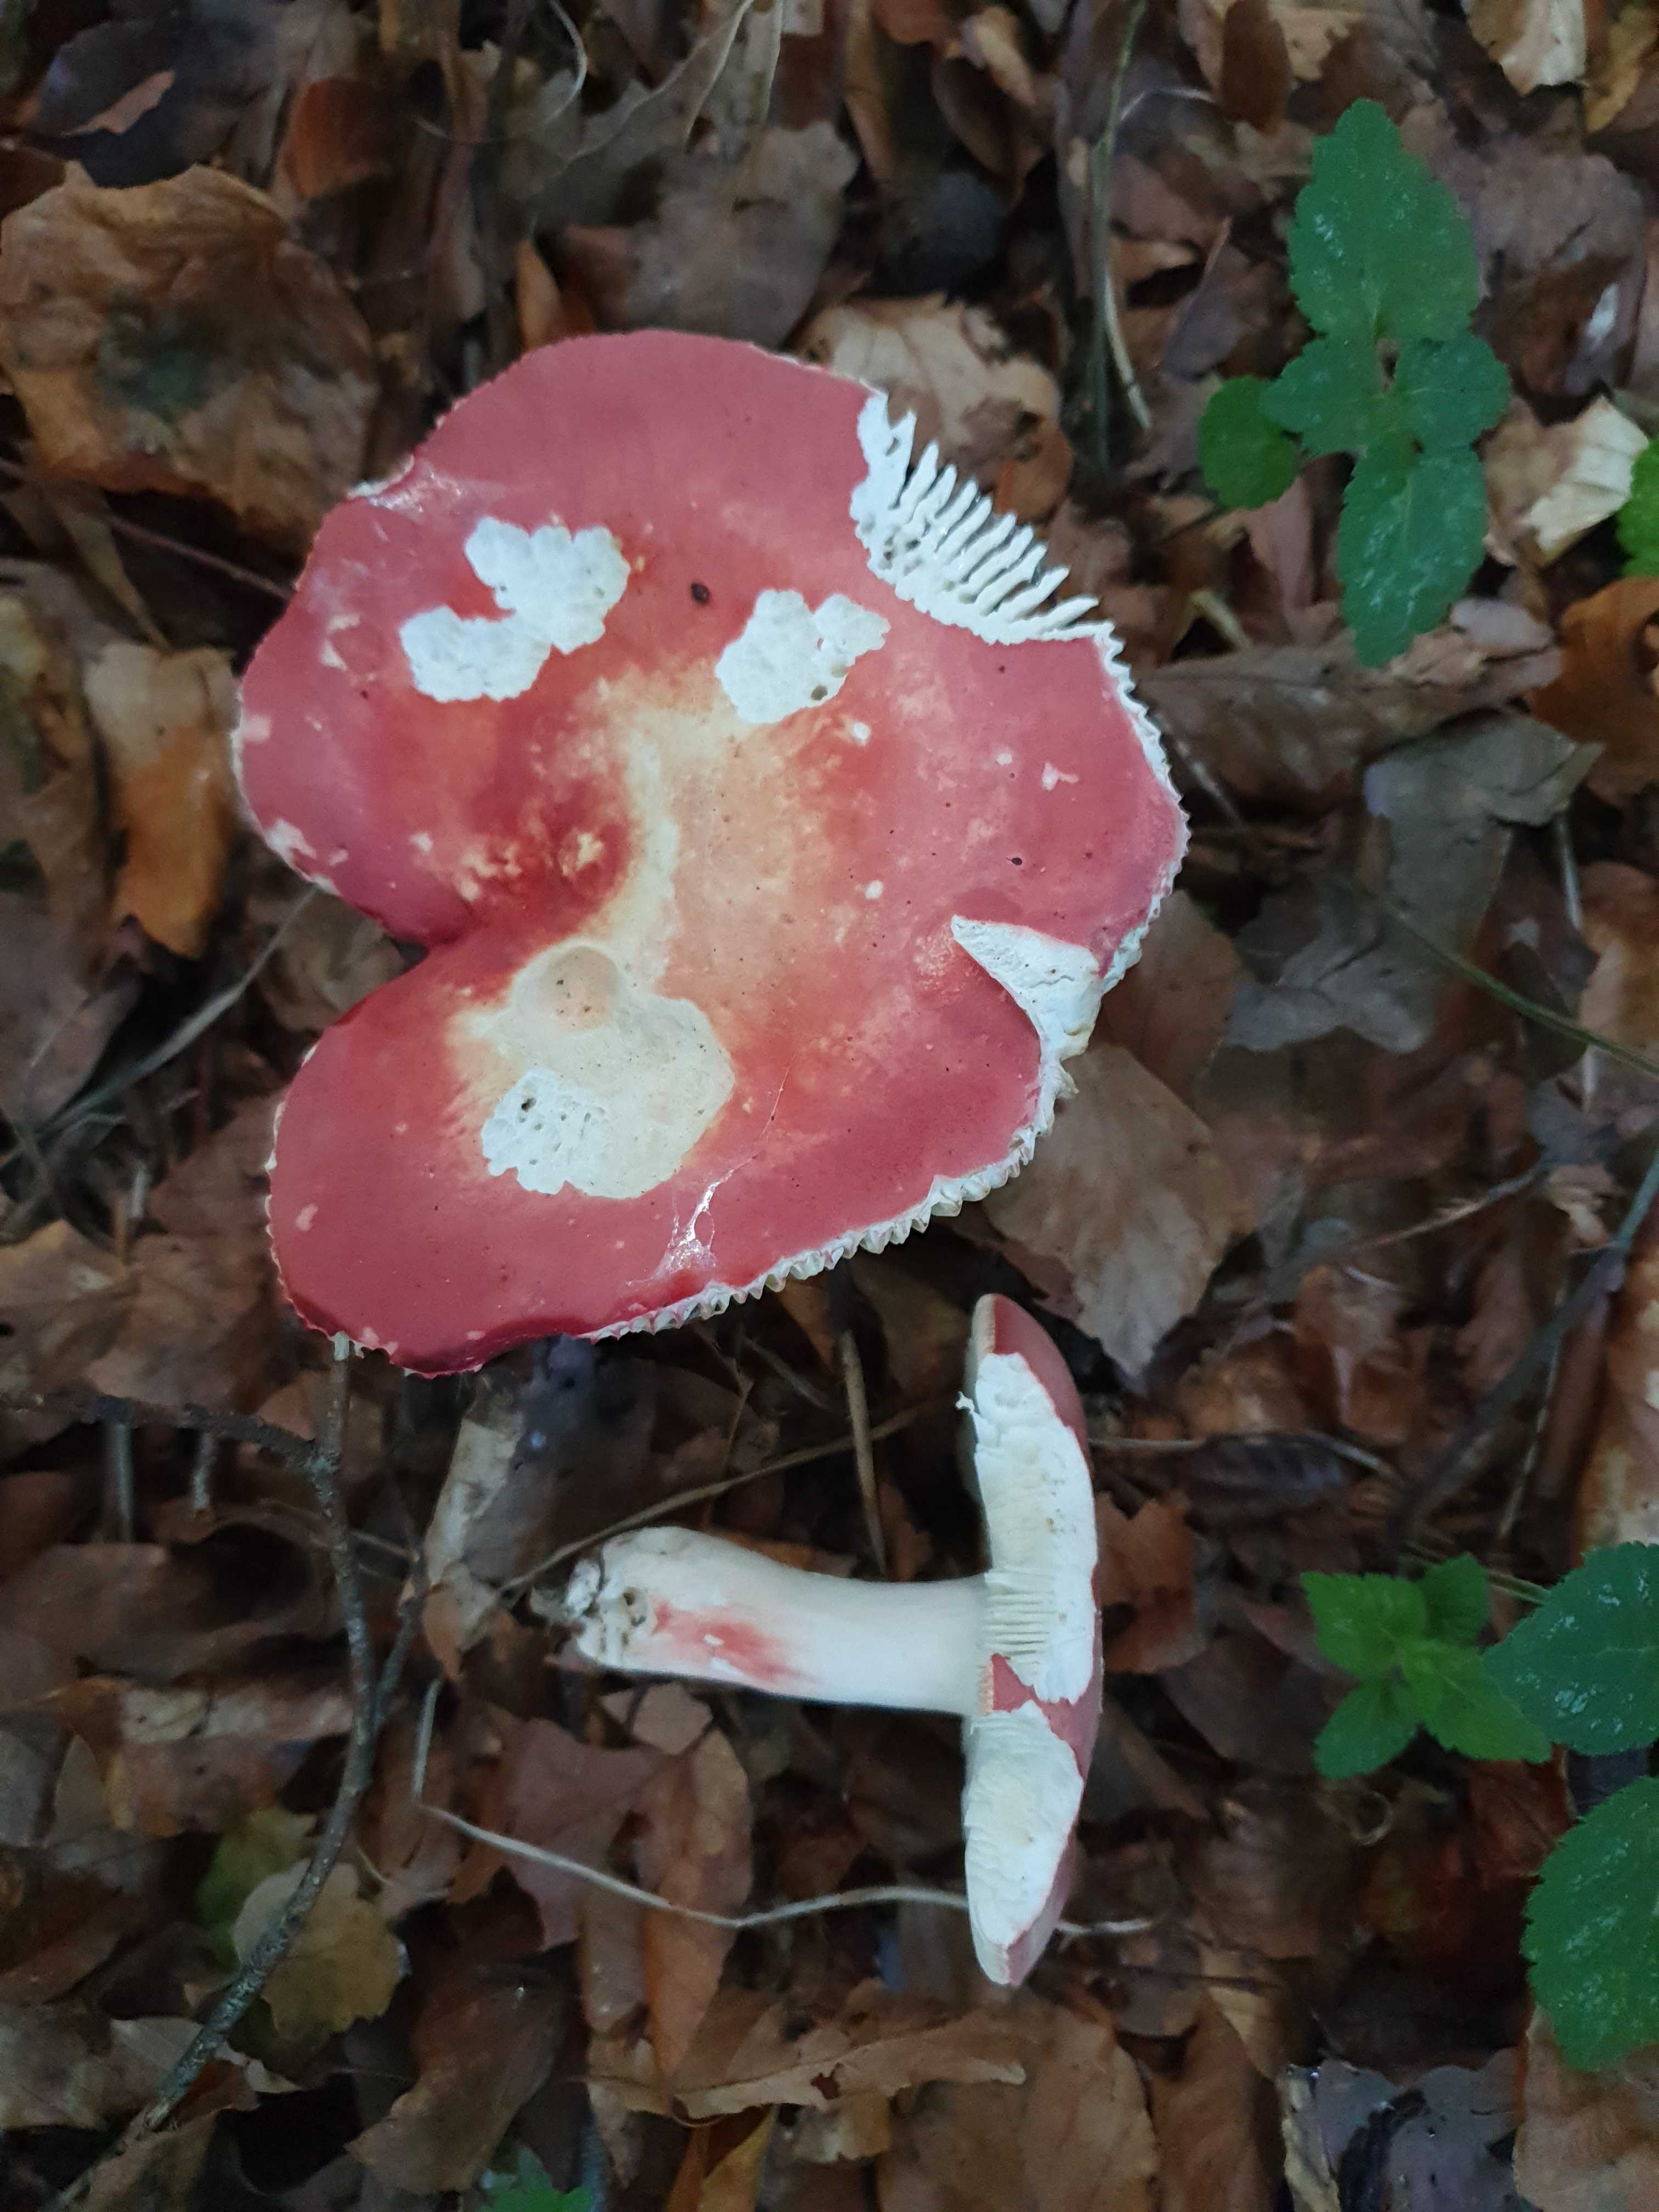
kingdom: Fungi
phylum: Basidiomycota
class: Agaricomycetes
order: Russulales
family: Russulaceae
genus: Russula
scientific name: Russula rosea
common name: fastkødet skørhat
